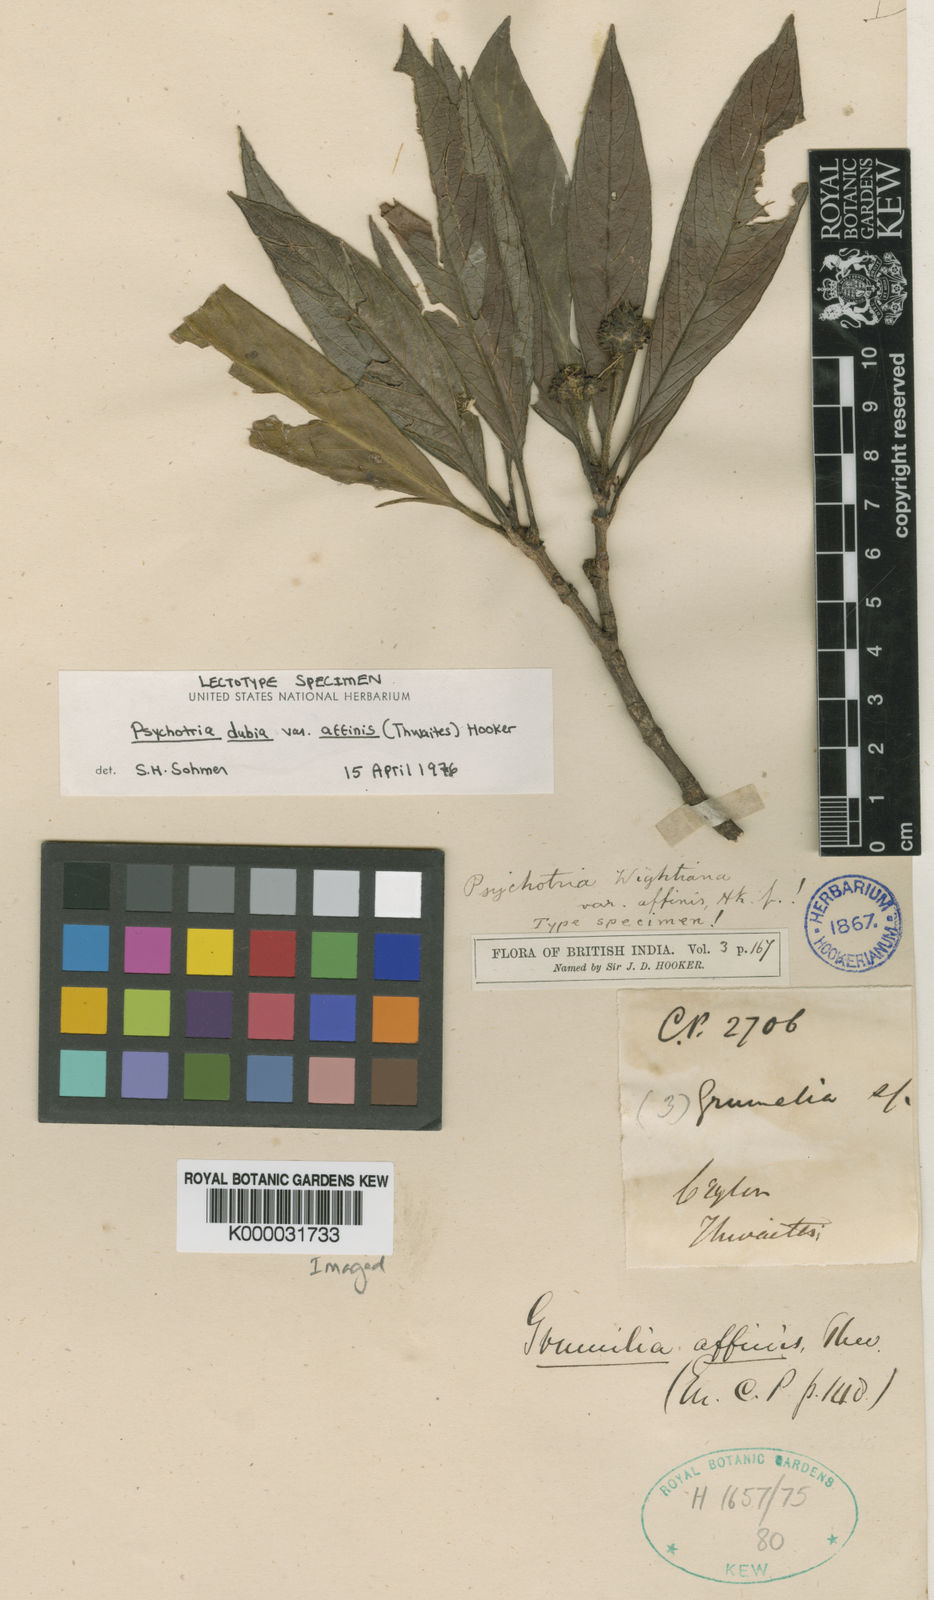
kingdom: Plantae
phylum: Tracheophyta
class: Magnoliopsida
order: Gentianales
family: Rubiaceae
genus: Psychotria
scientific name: Psychotria dubia
